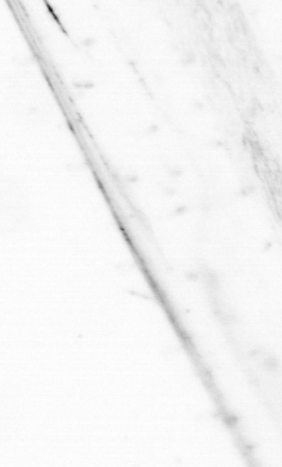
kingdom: Animalia
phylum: Chaetognatha
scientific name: Chaetognatha
